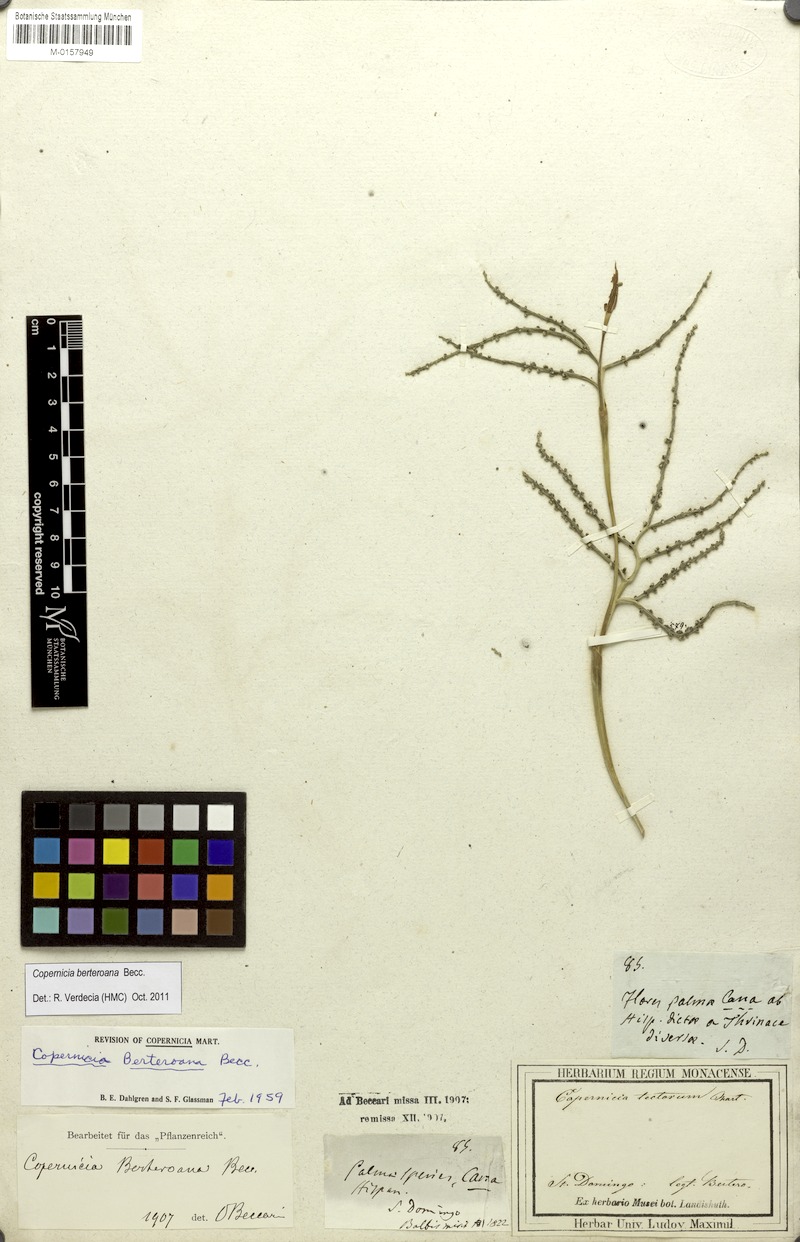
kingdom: Plantae
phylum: Tracheophyta
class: Liliopsida
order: Arecales
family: Arecaceae
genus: Copernicia
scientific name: Copernicia berteroana
